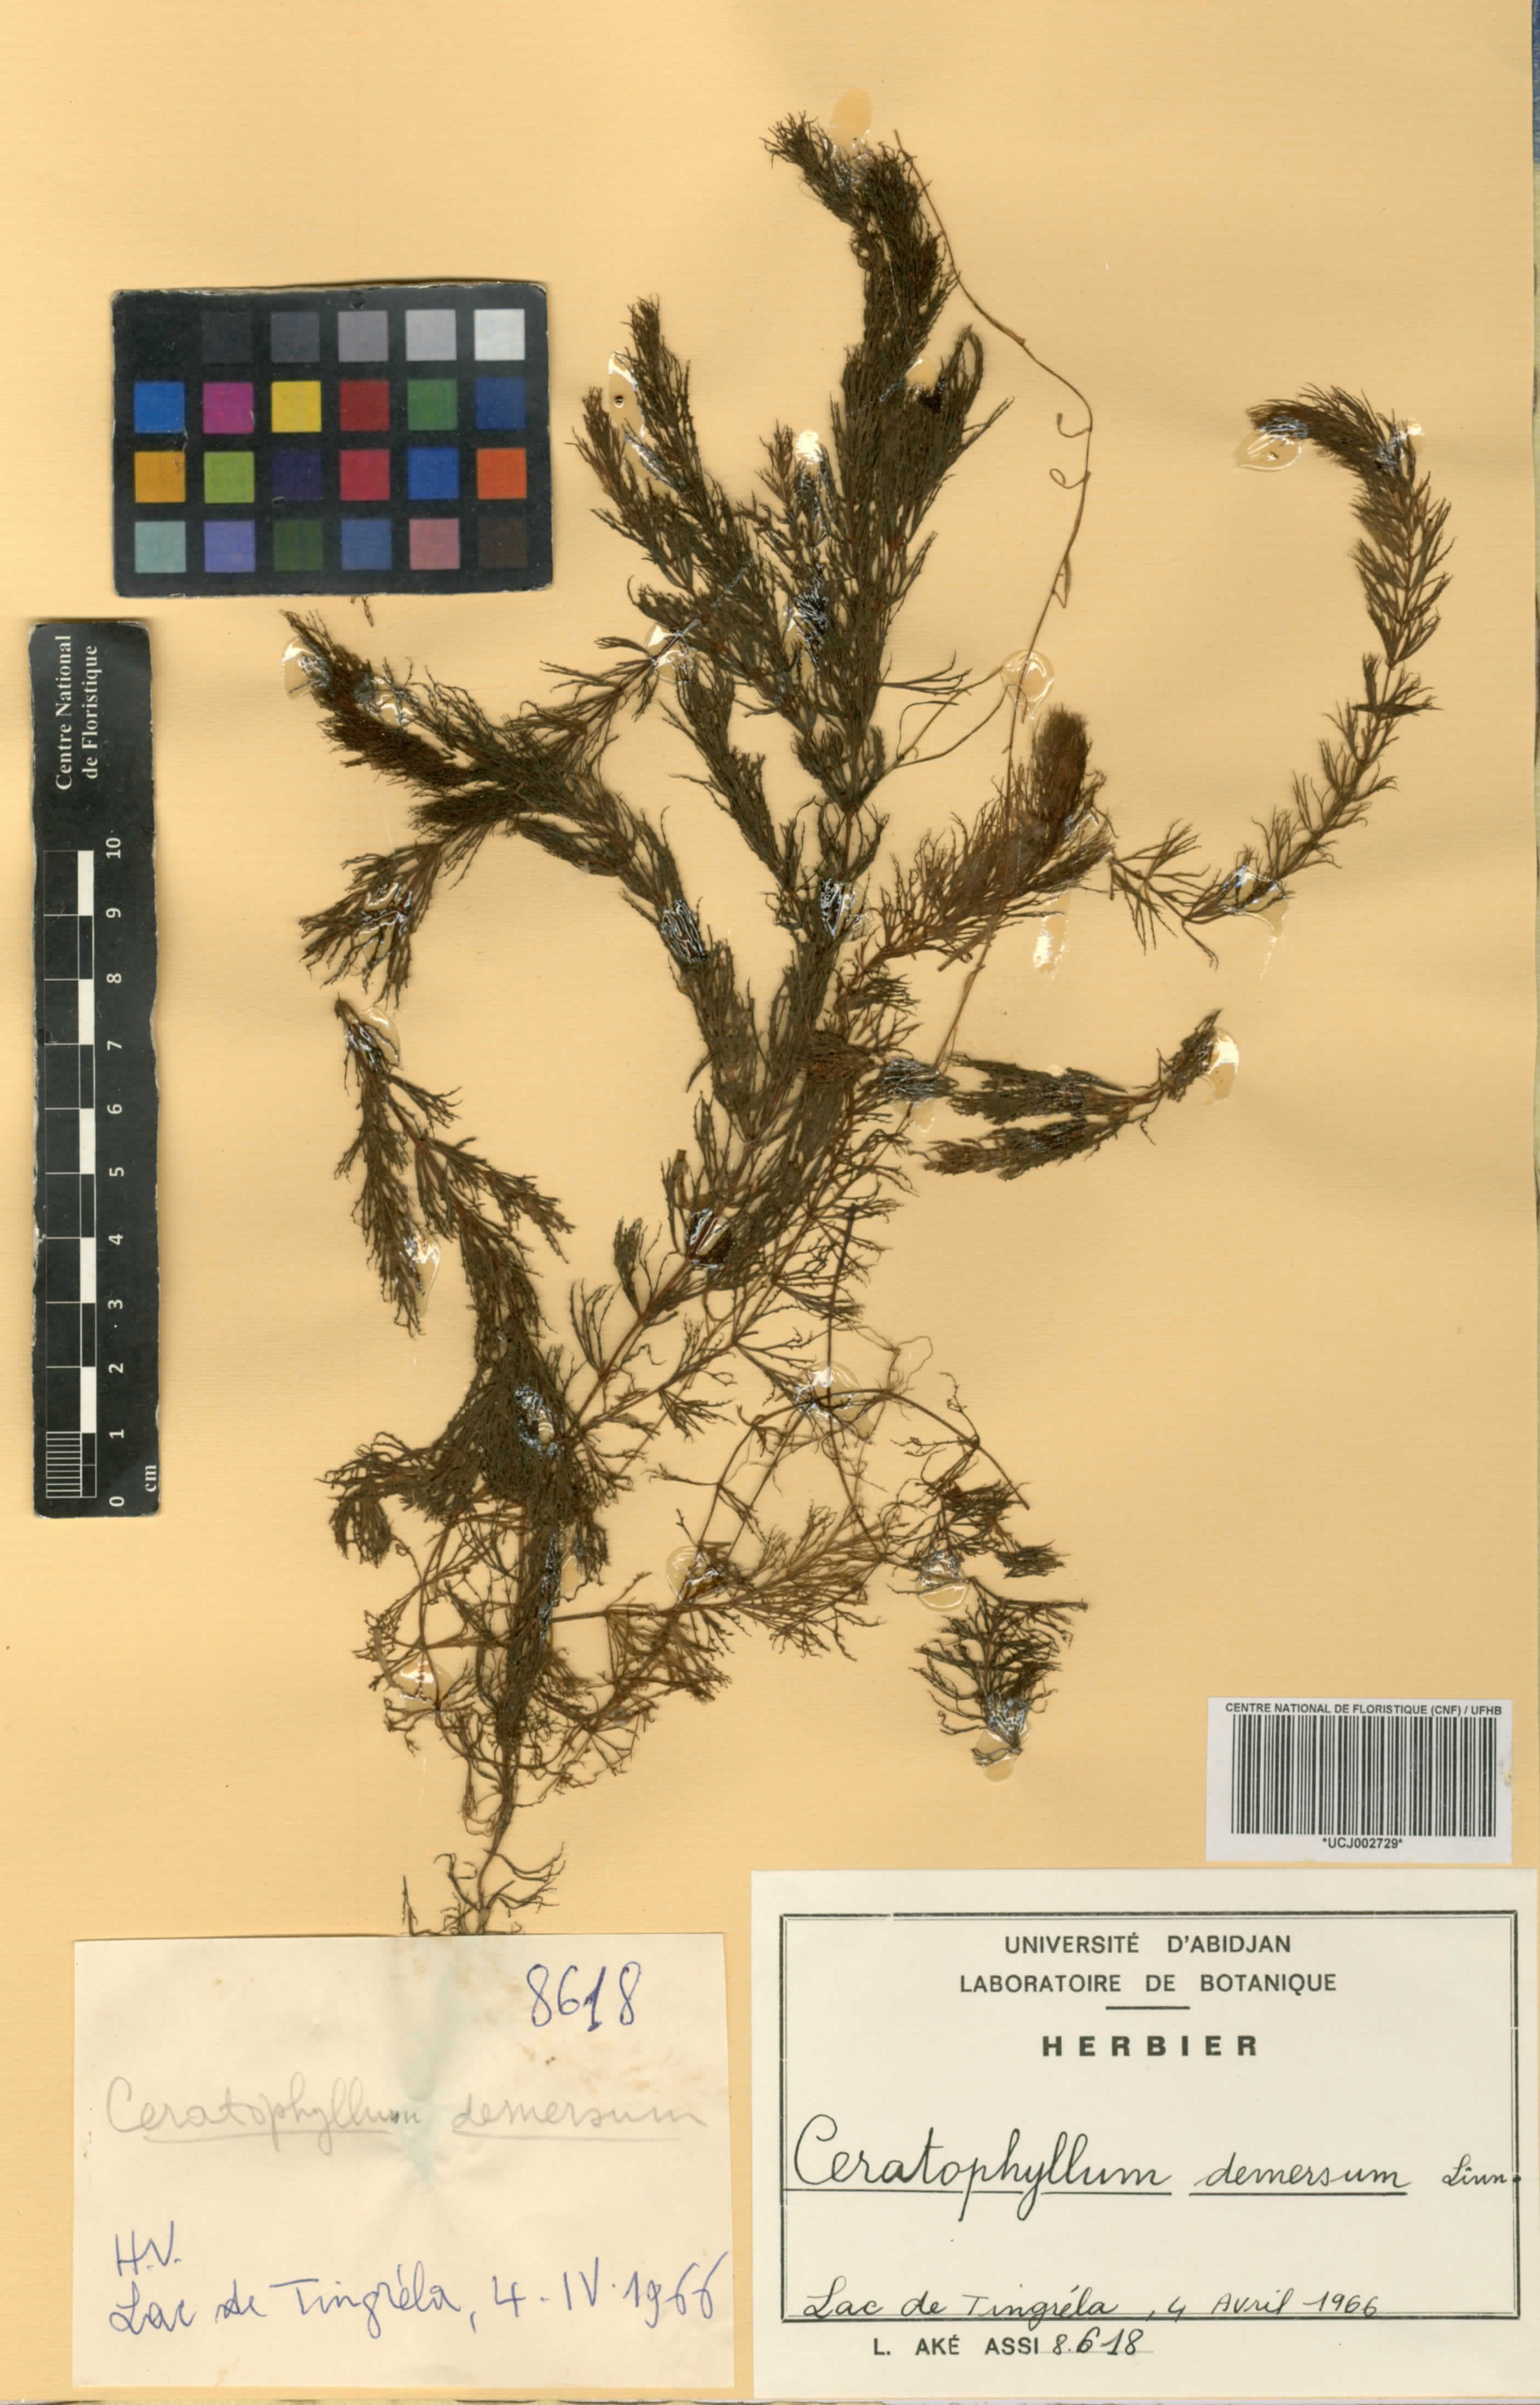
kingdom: Plantae
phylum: Tracheophyta
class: Magnoliopsida
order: Ceratophyllales
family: Ceratophyllaceae
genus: Ceratophyllum
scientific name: Ceratophyllum demersum
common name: Rigid hornwort
